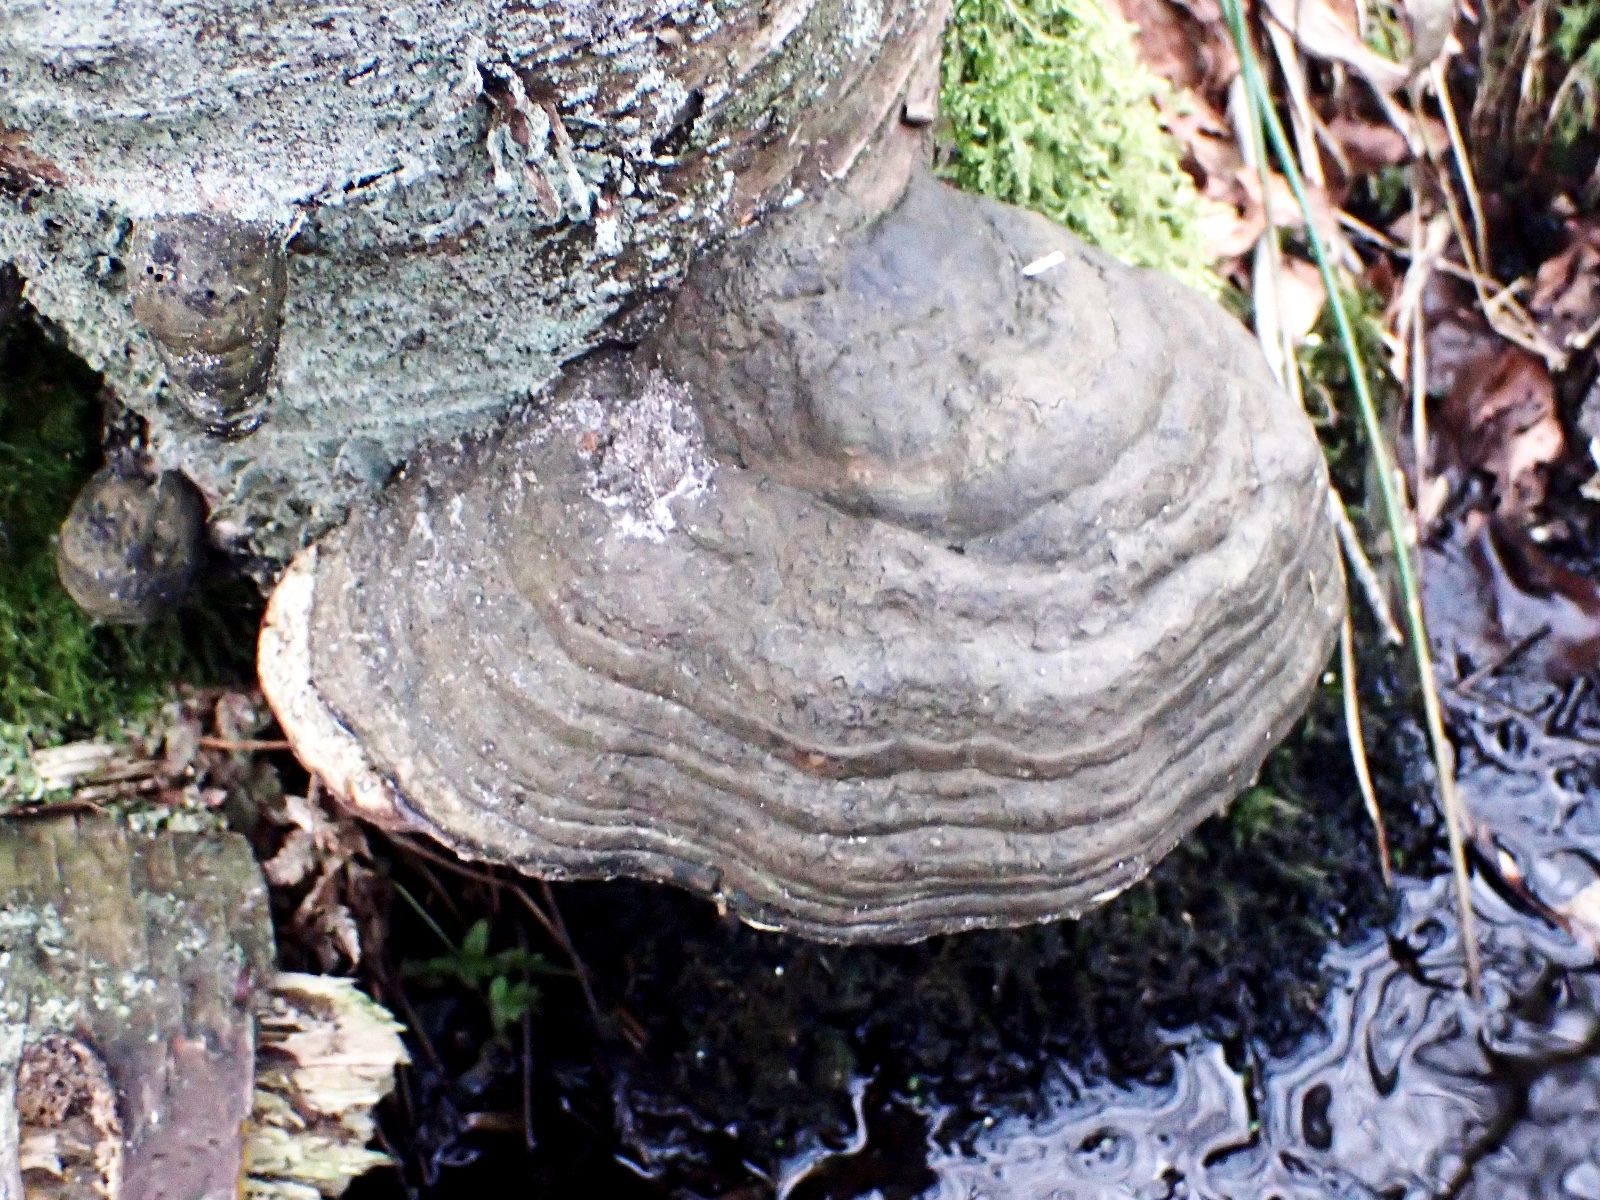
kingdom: Fungi
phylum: Basidiomycota
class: Agaricomycetes
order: Polyporales
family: Polyporaceae
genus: Fomes
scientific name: Fomes fomentarius
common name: tøndersvamp
